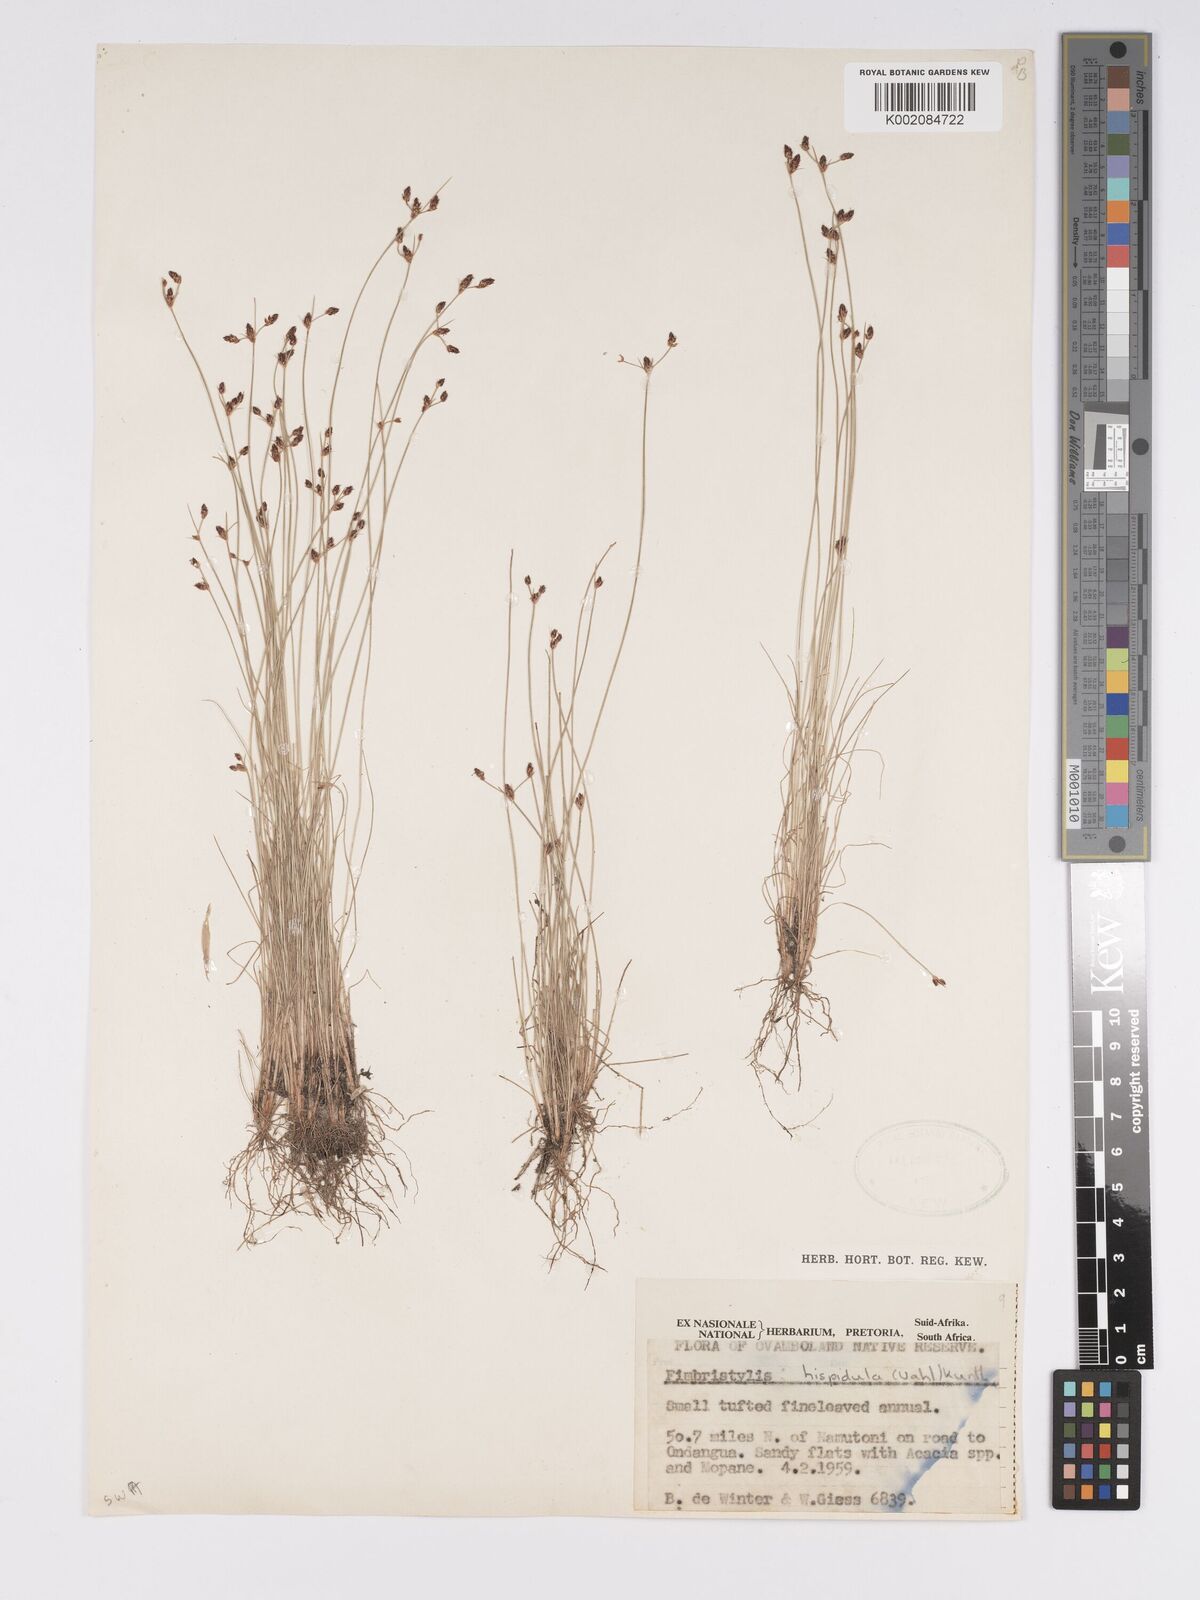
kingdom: Plantae
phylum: Tracheophyta
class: Liliopsida
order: Poales
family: Cyperaceae
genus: Bulbostylis
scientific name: Bulbostylis hispidula
